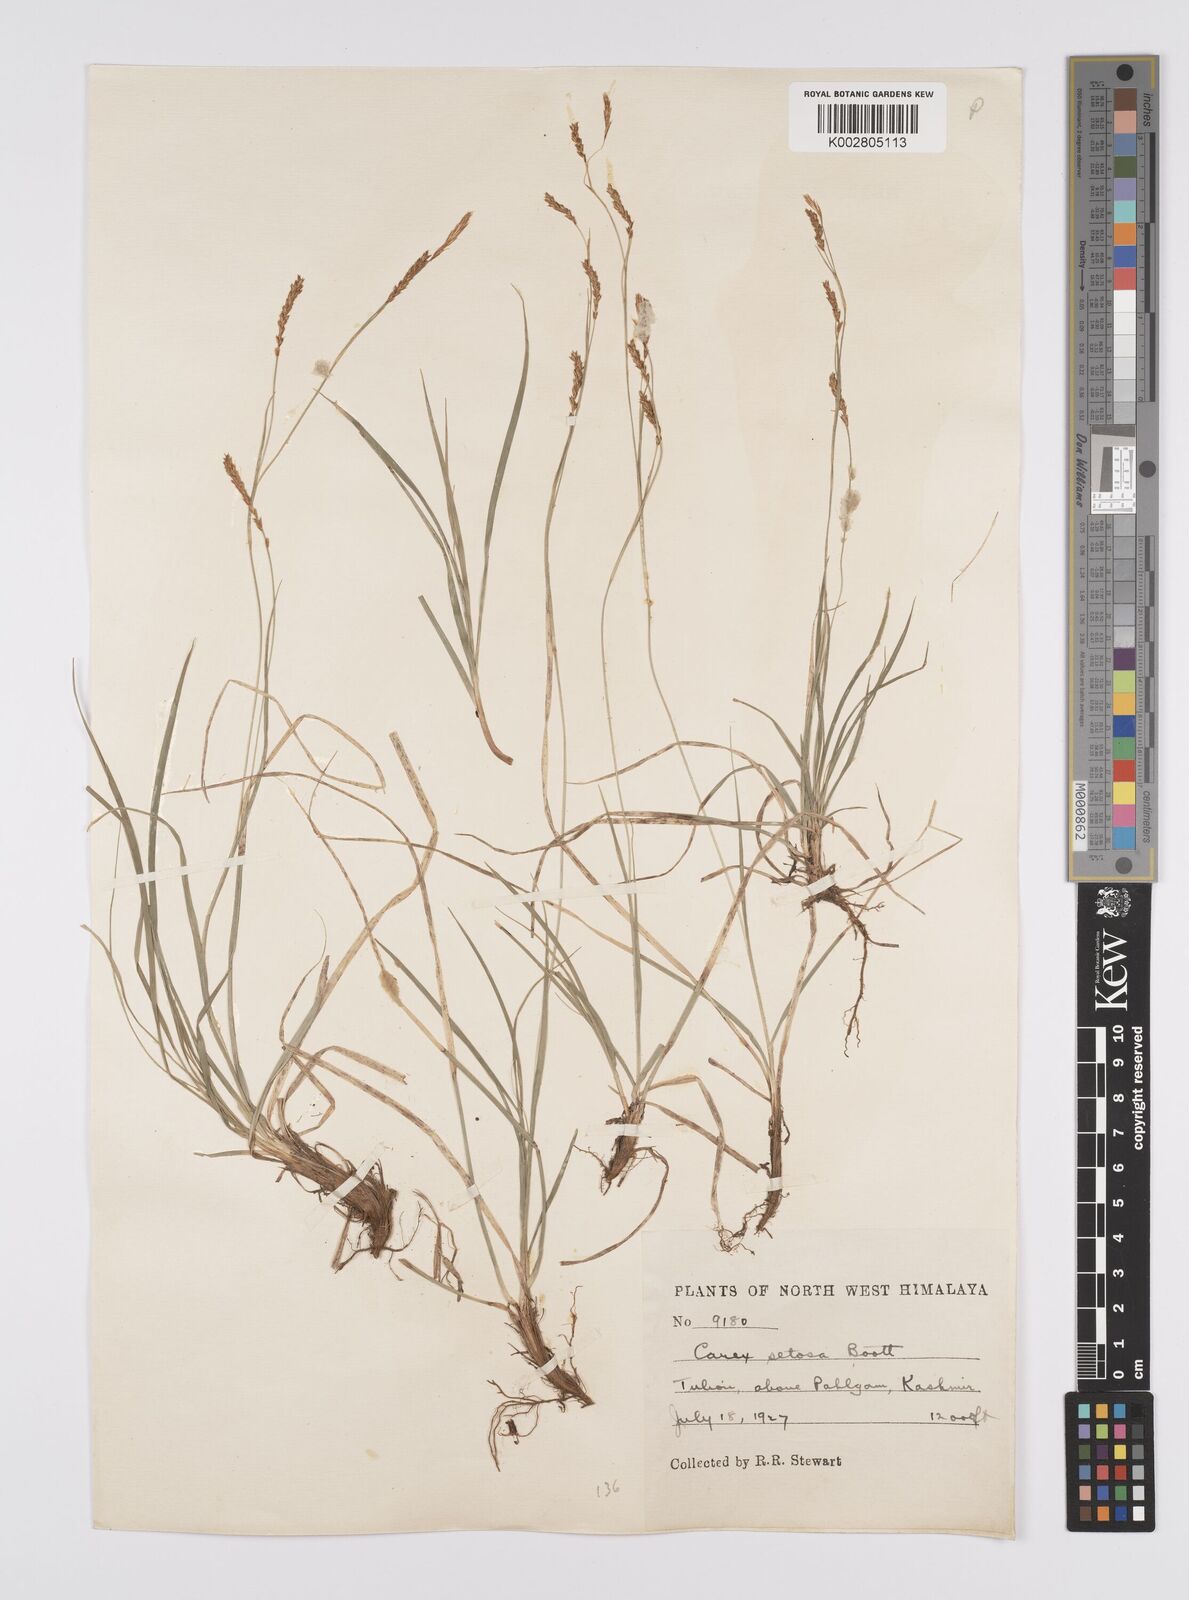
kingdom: Plantae
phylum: Tracheophyta
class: Liliopsida
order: Poales
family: Cyperaceae
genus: Carex
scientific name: Carex setosa
